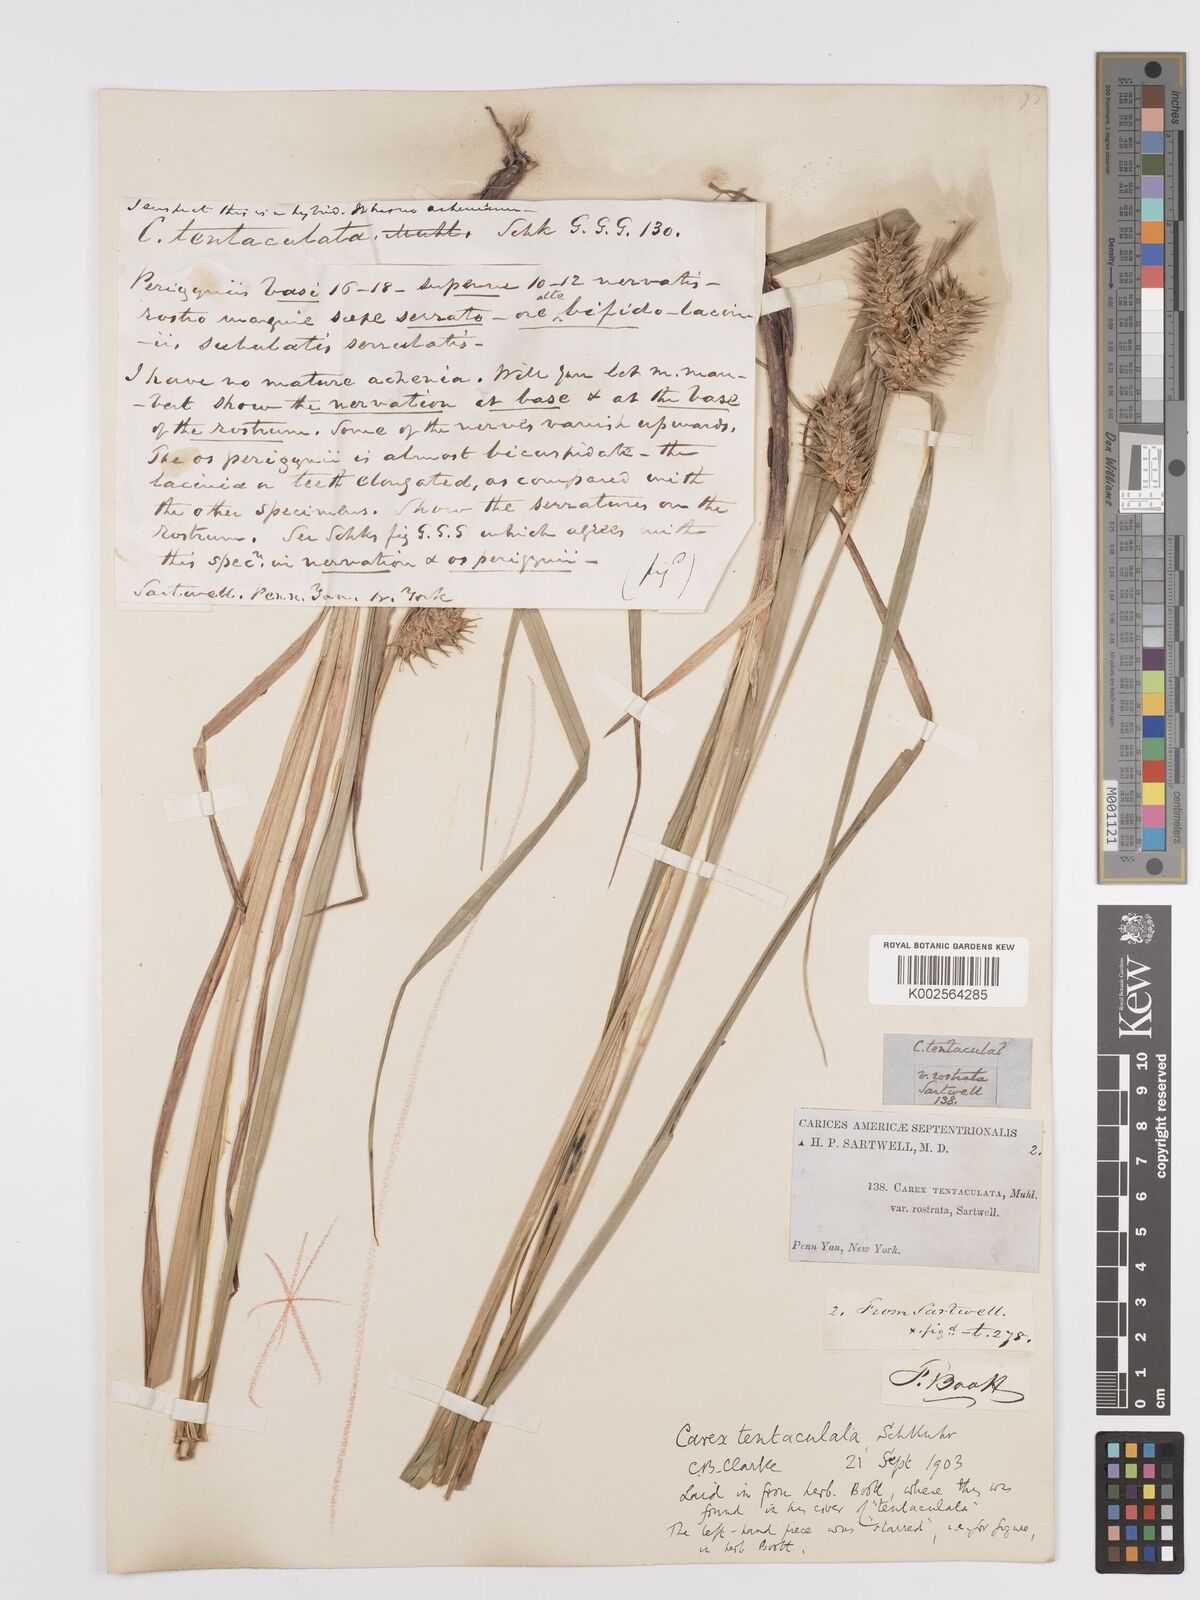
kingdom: Plantae
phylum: Tracheophyta
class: Liliopsida
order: Poales
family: Cyperaceae
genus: Carex
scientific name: Carex lurida
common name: Sallow sedge
